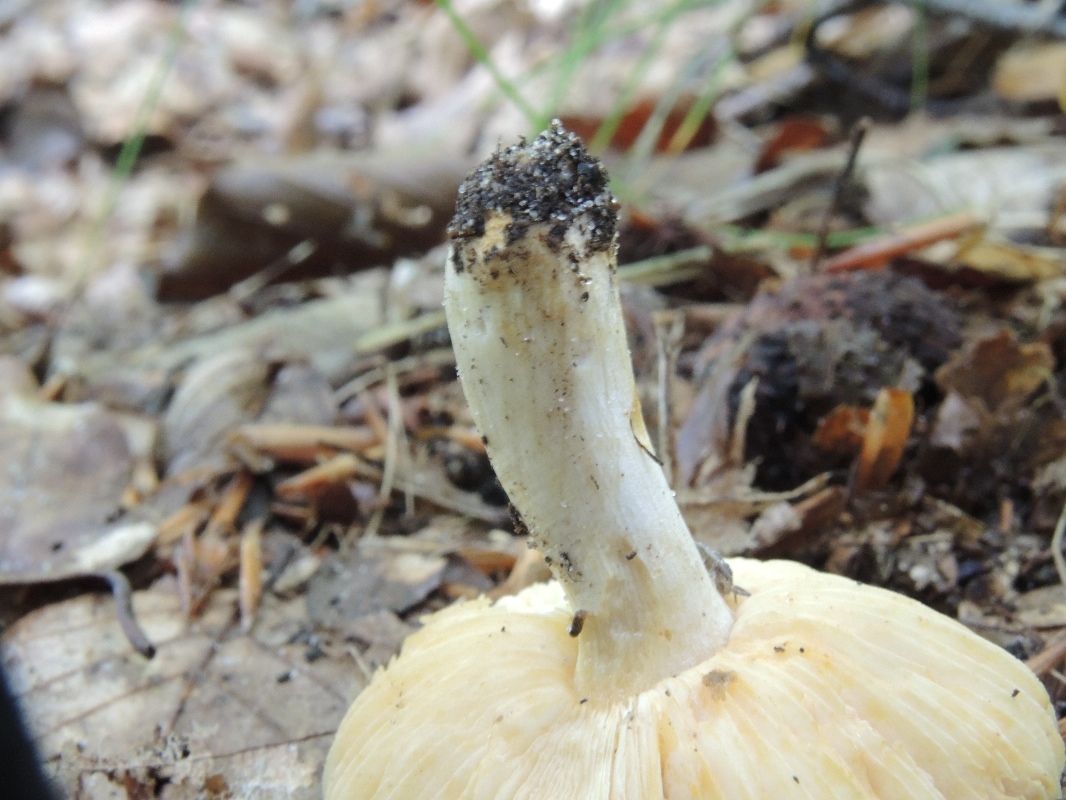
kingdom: Fungi
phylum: Basidiomycota
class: Agaricomycetes
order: Russulales
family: Russulaceae
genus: Russula
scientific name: Russula puellaris
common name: gulstokket skørhat
